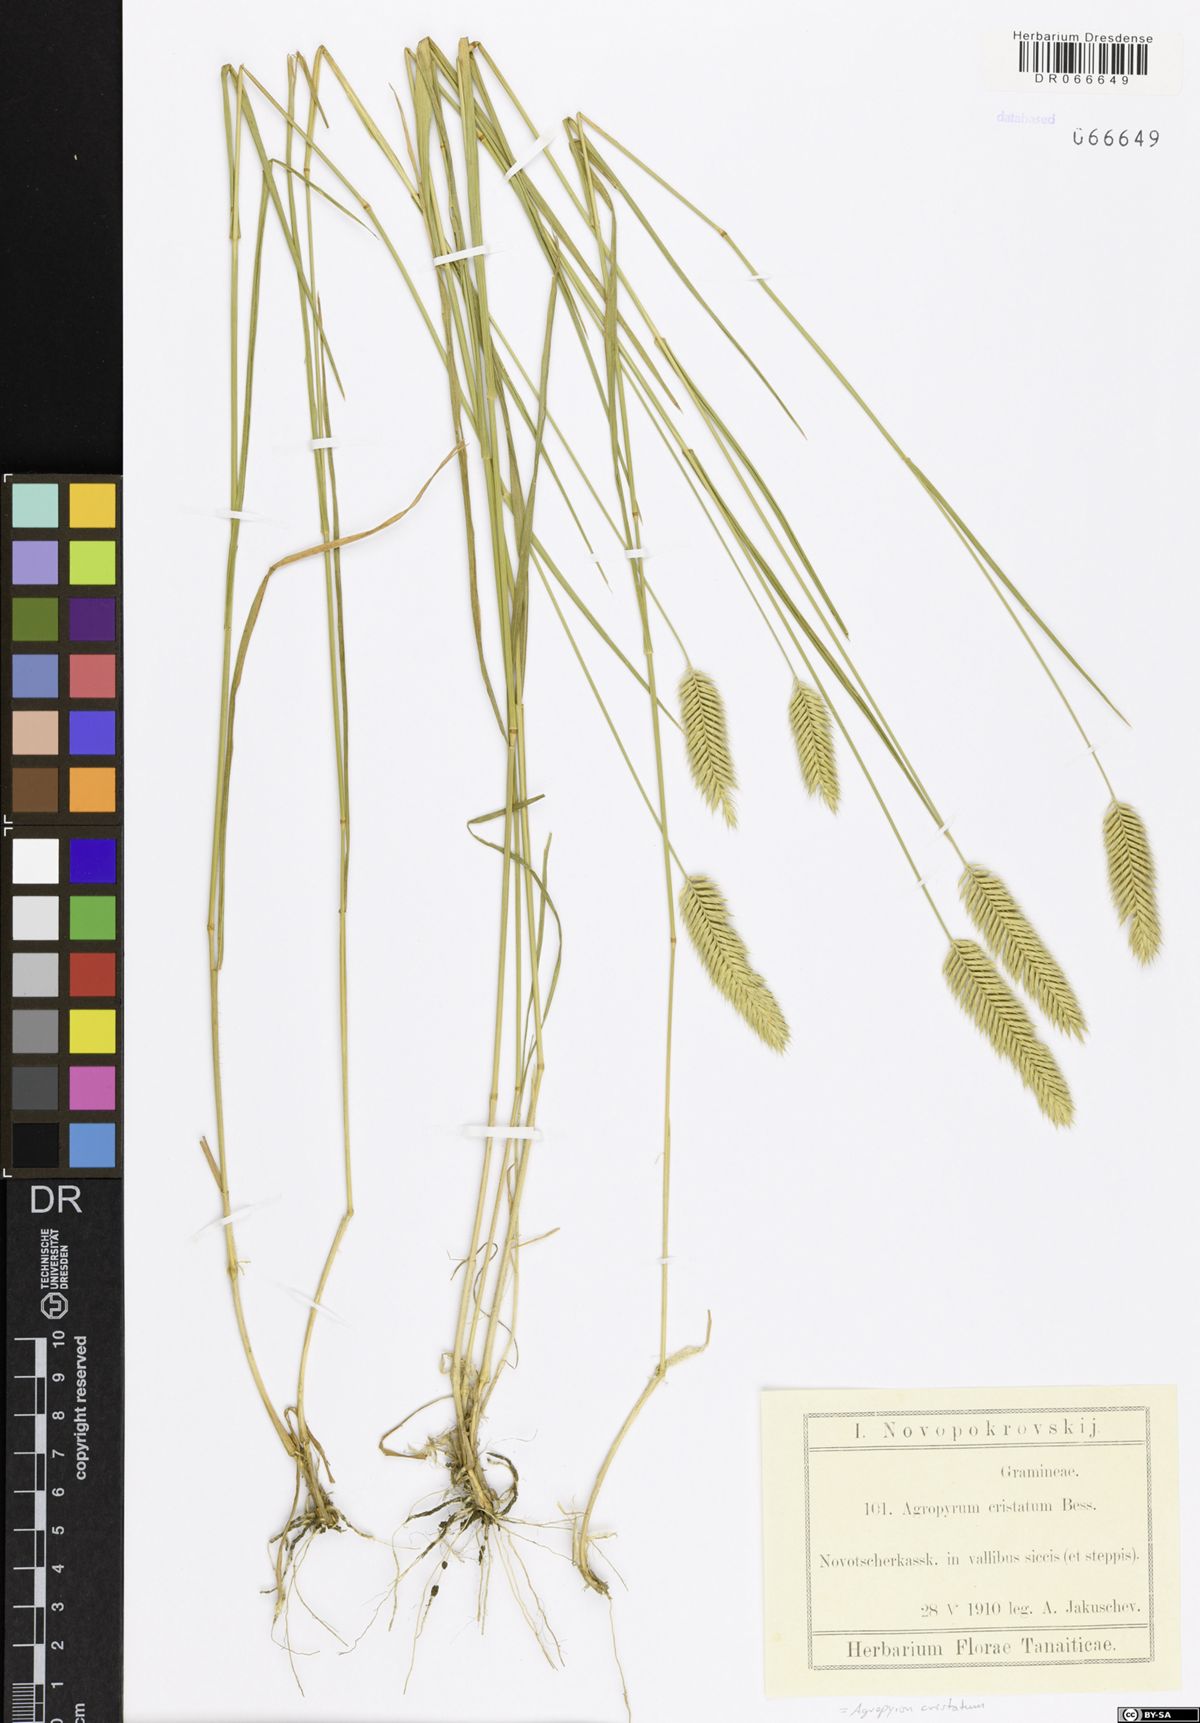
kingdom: Plantae
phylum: Tracheophyta
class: Liliopsida
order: Poales
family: Poaceae
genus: Agropyron
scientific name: Agropyron cristatum
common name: Crested wheatgrass
